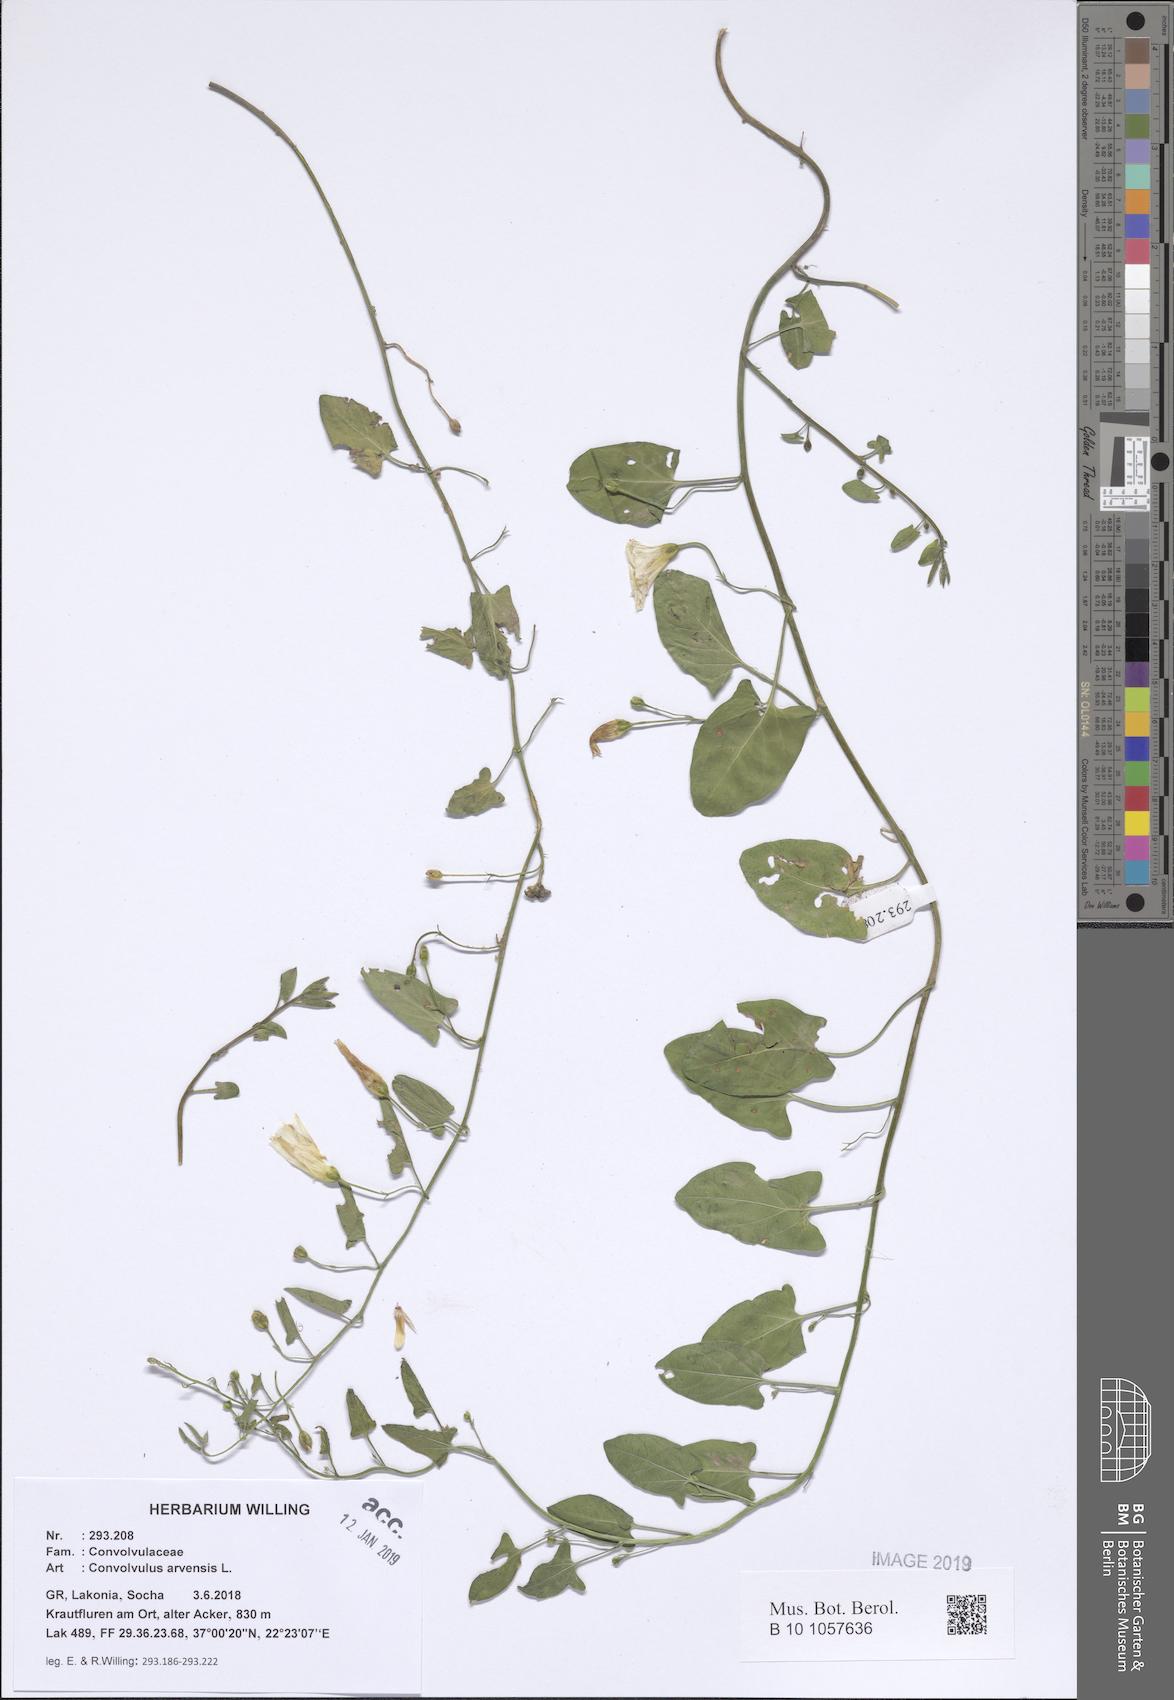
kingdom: Plantae
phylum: Tracheophyta
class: Magnoliopsida
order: Solanales
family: Convolvulaceae
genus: Convolvulus
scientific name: Convolvulus arvensis
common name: Field bindweed
